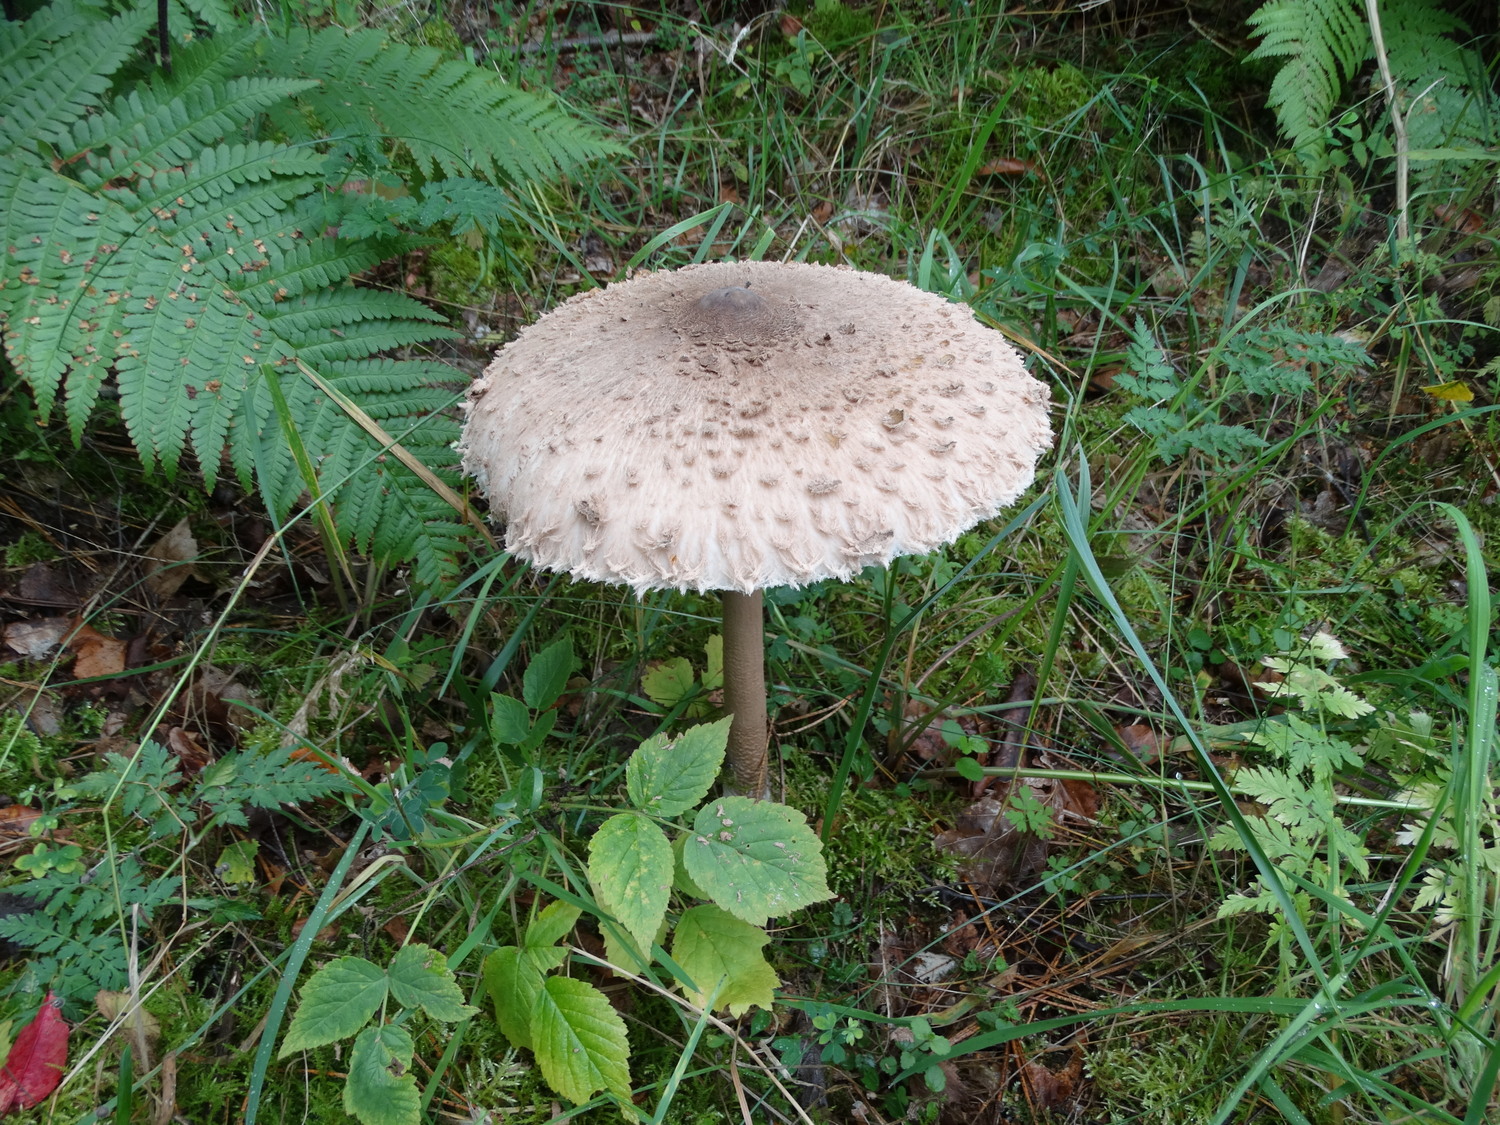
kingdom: Fungi
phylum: Basidiomycota
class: Agaricomycetes
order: Agaricales
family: Agaricaceae
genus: Macrolepiota
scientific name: Macrolepiota procera
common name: stor kæmpeparasolhat
